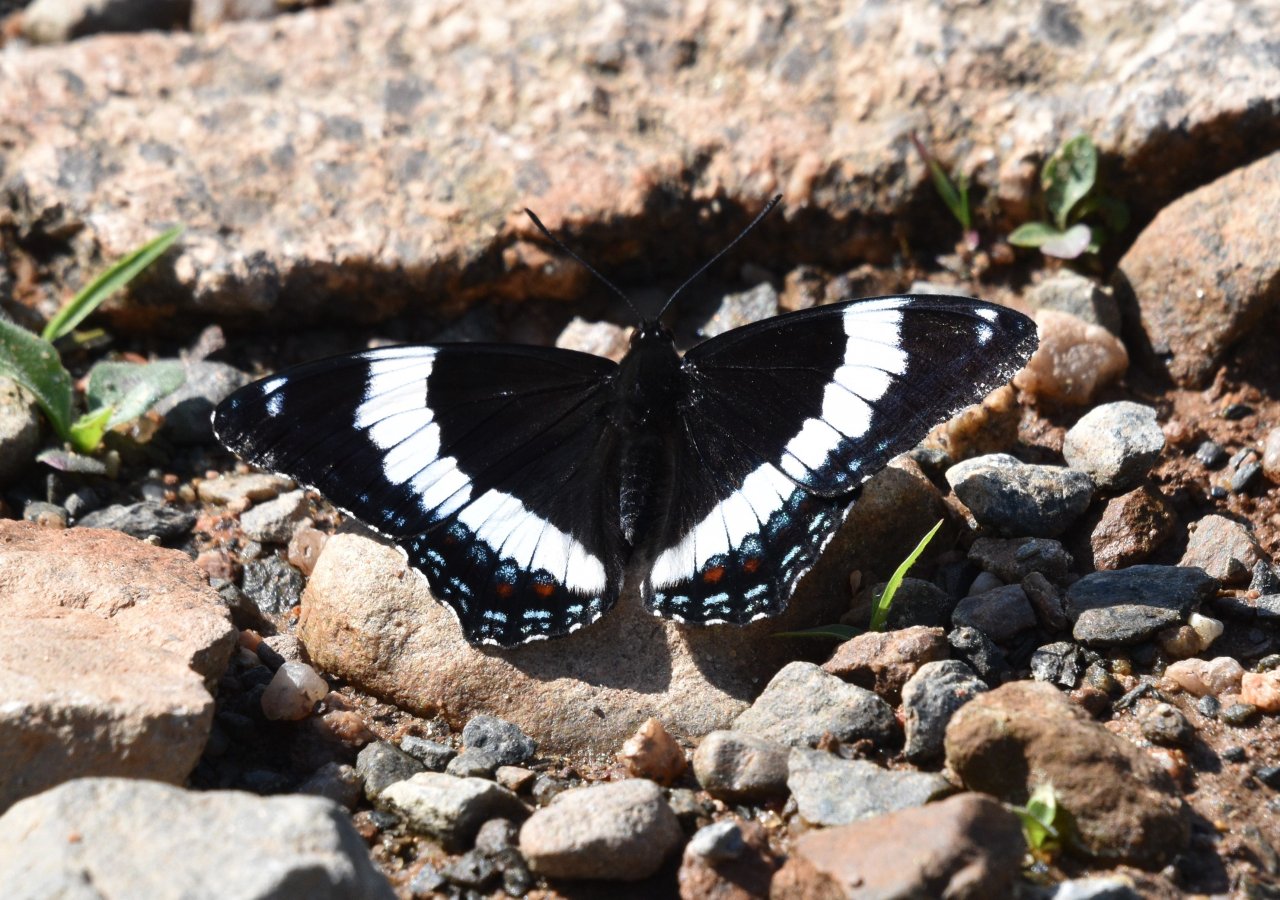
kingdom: Animalia
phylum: Arthropoda
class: Insecta
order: Lepidoptera
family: Nymphalidae
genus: Limenitis
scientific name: Limenitis arthemis
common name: Red-spotted Admiral
